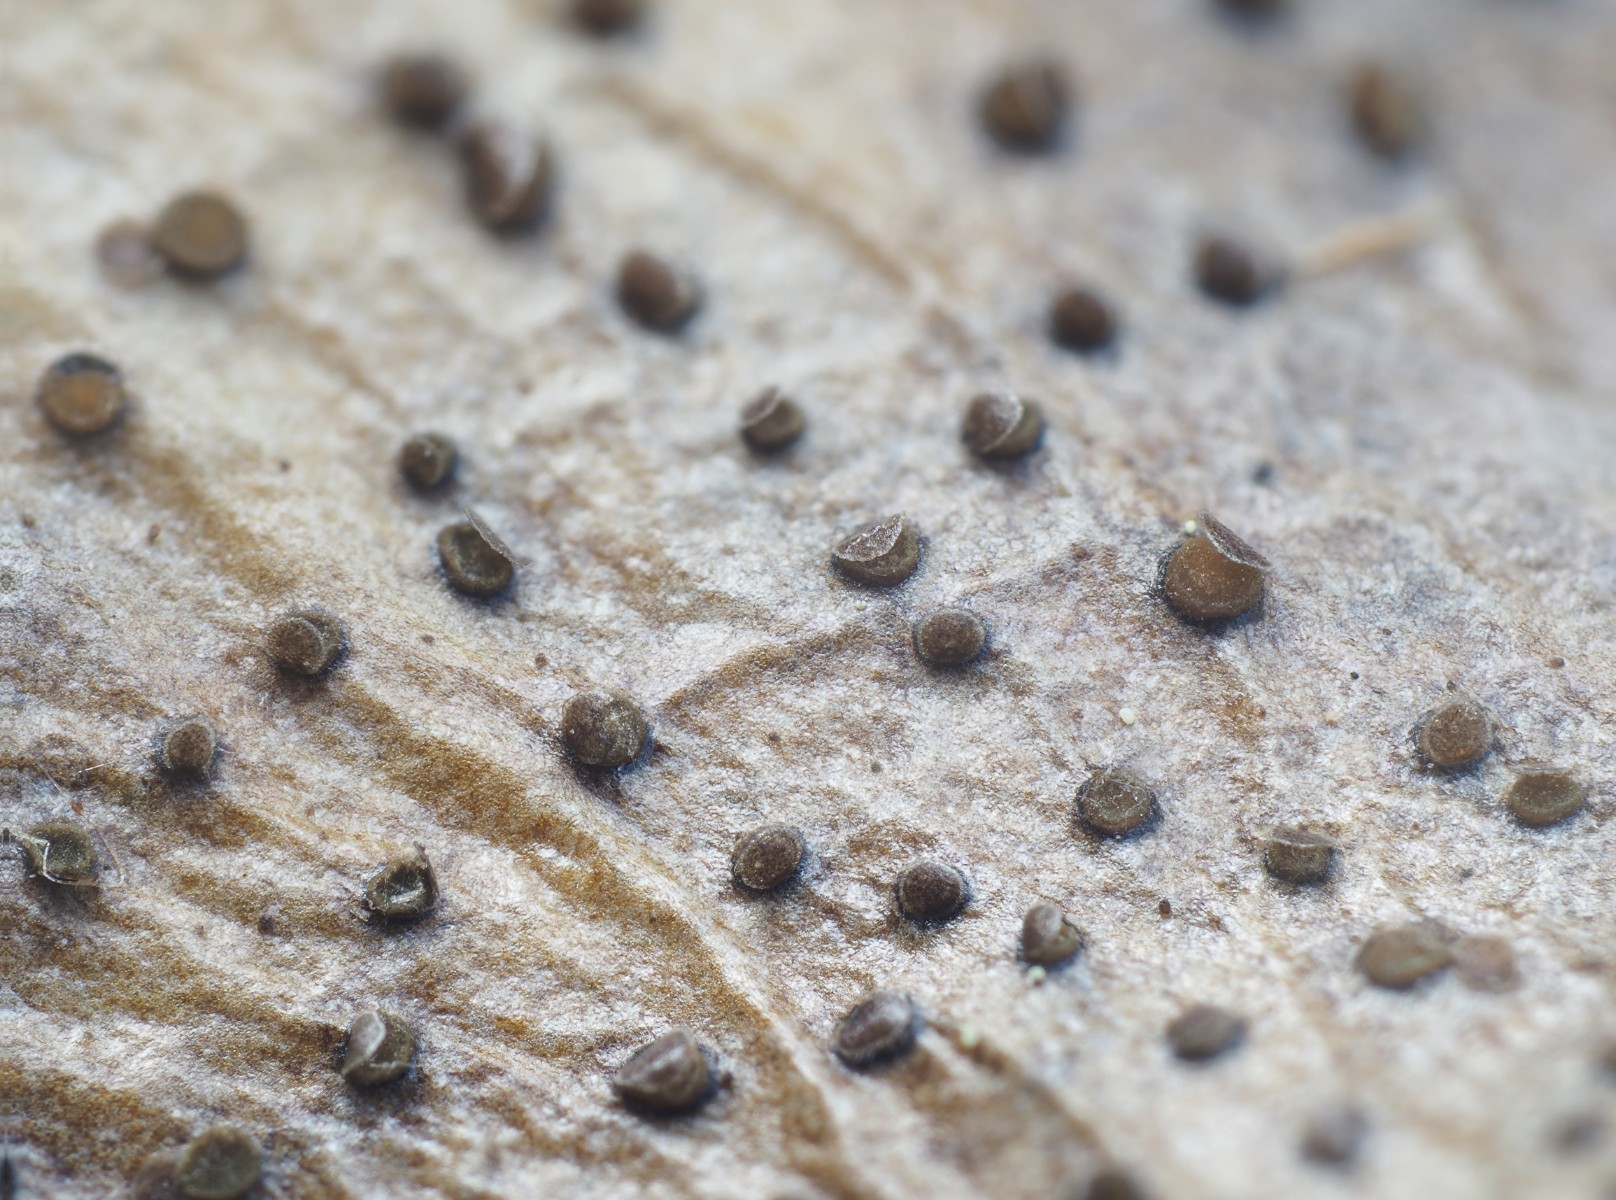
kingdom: Fungi
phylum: Ascomycota
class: Leotiomycetes
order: Helotiales
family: Cenangiaceae
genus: Trochila
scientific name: Trochila ilicina
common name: kristtorn-lågskive
